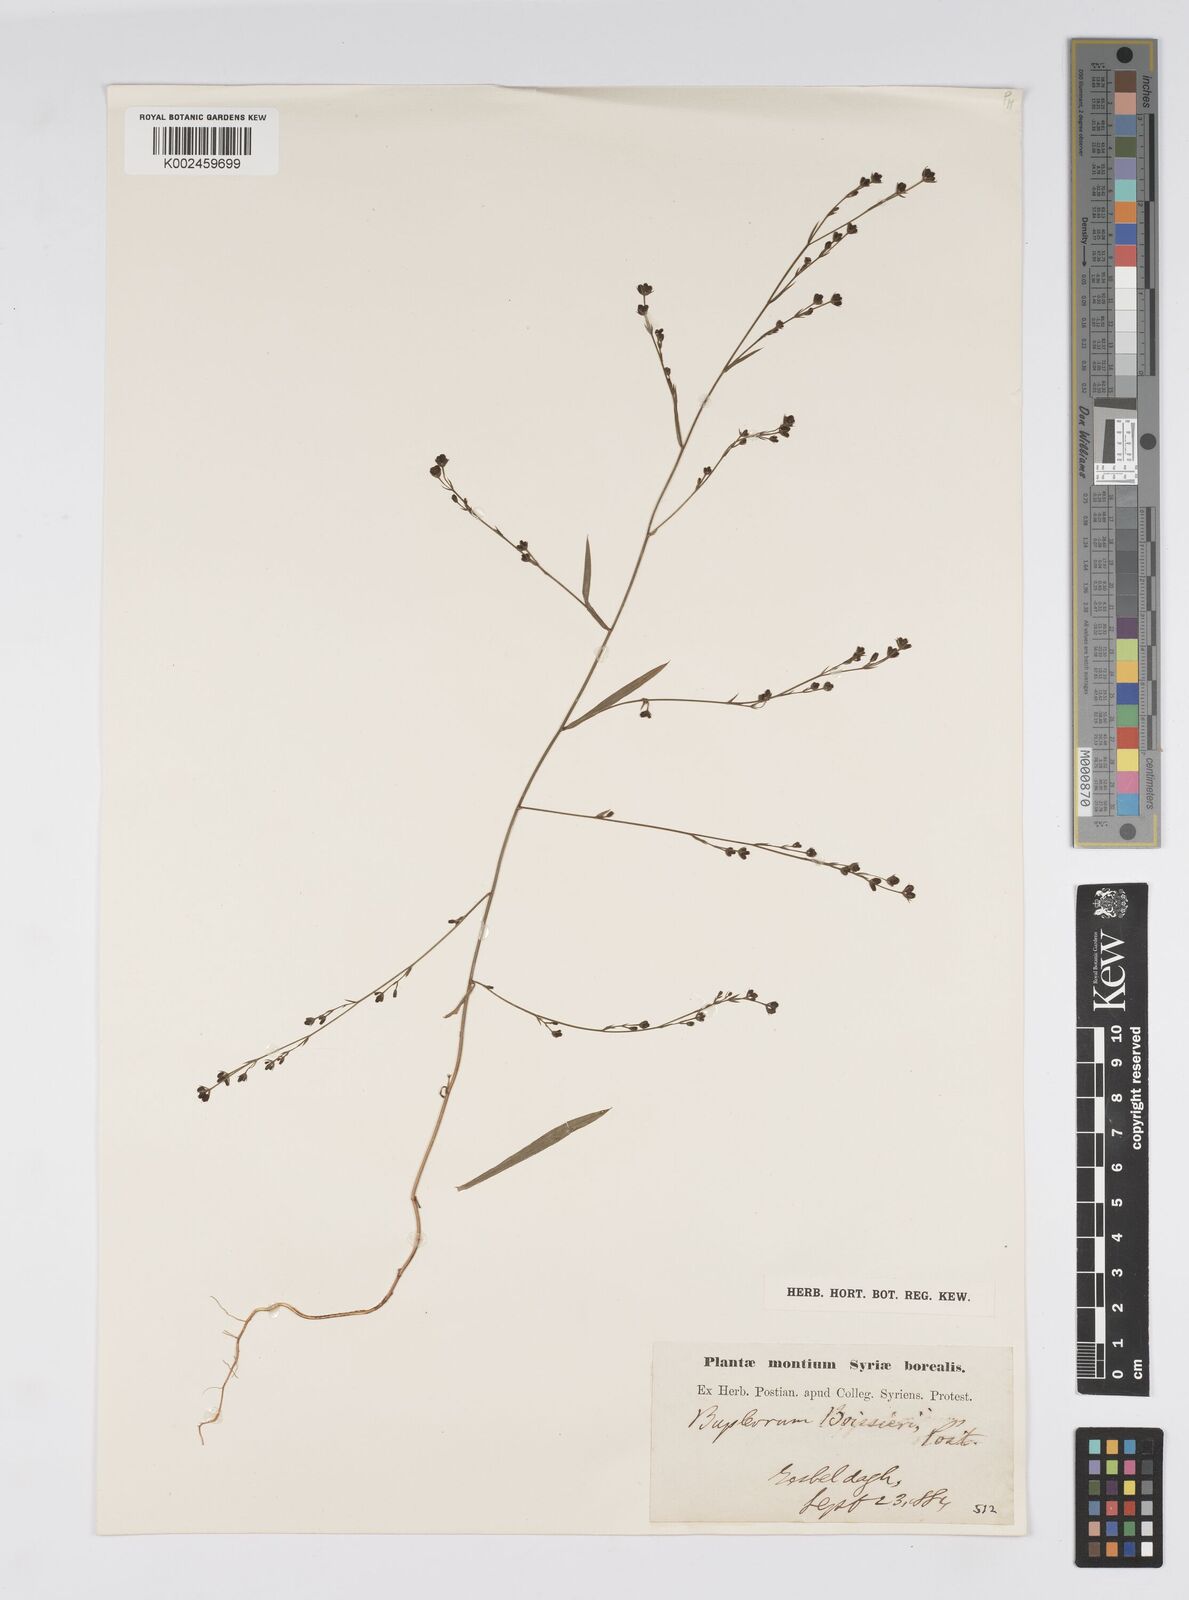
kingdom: Plantae
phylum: Tracheophyta
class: Magnoliopsida
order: Apiales
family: Apiaceae
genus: Bupleurum
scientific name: Bupleurum boissieri
